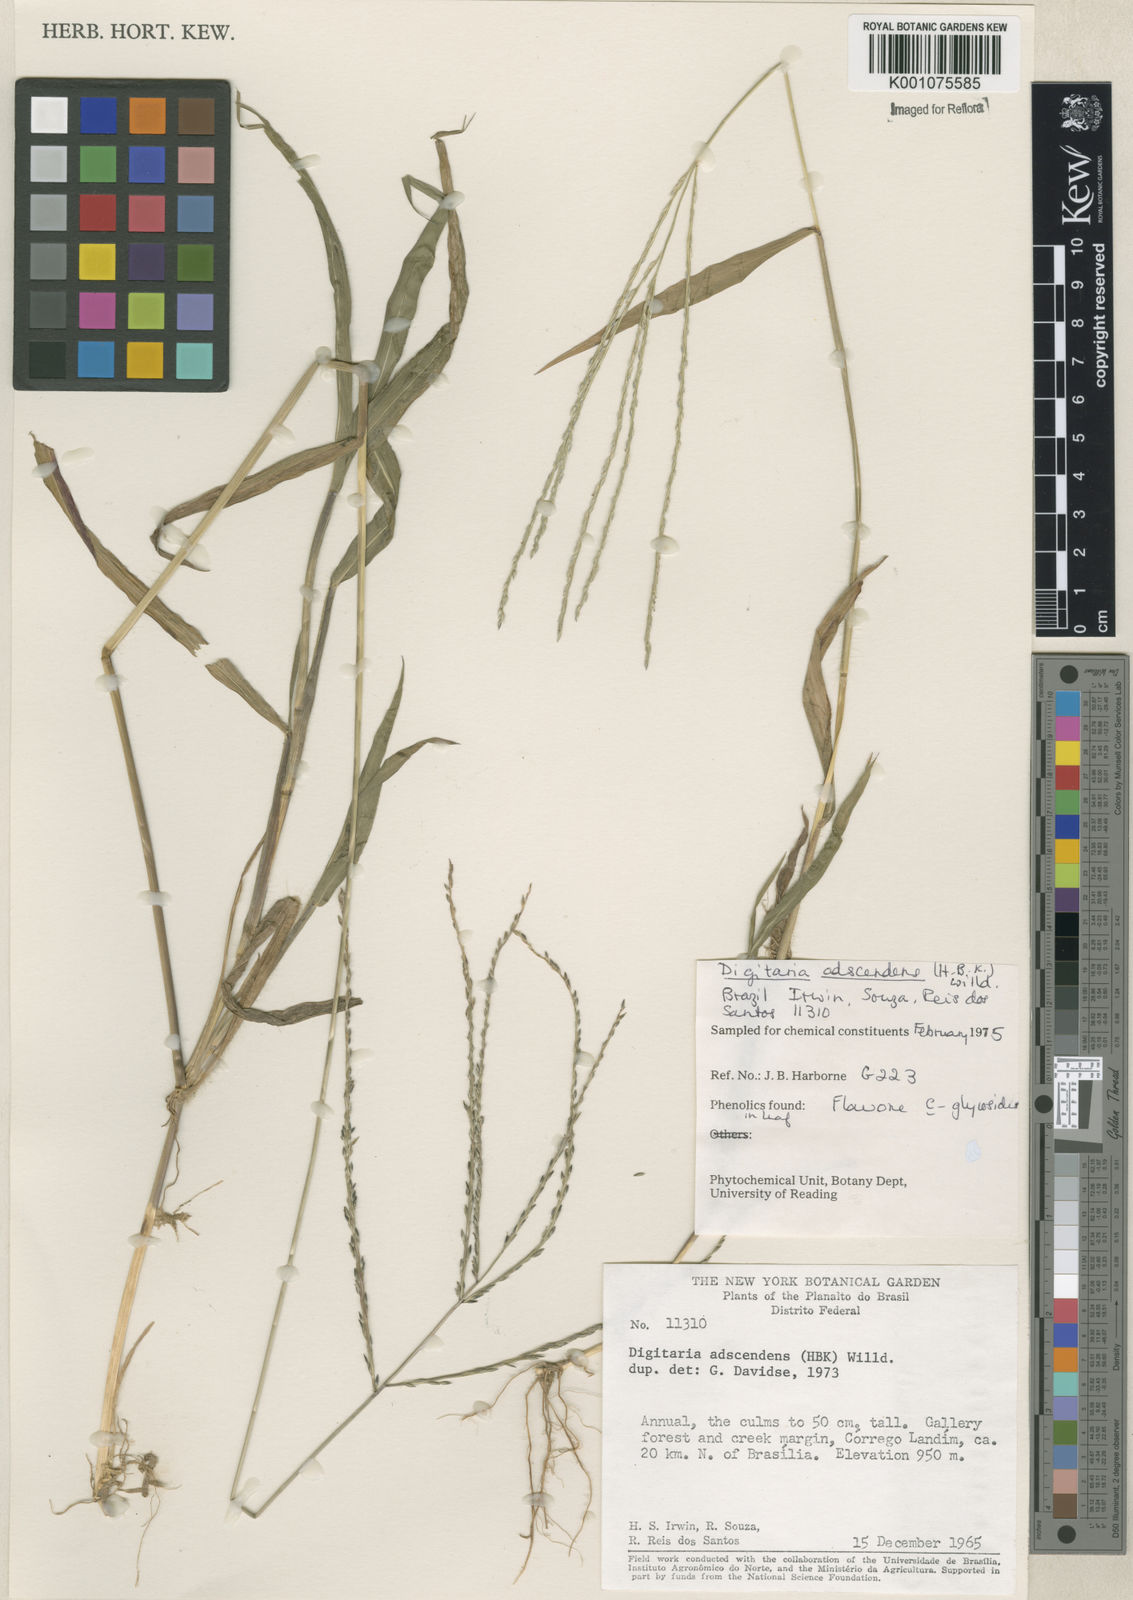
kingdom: Plantae
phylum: Tracheophyta
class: Liliopsida
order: Poales
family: Poaceae
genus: Digitaria
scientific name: Digitaria ciliaris
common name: Tropical finger-grass
